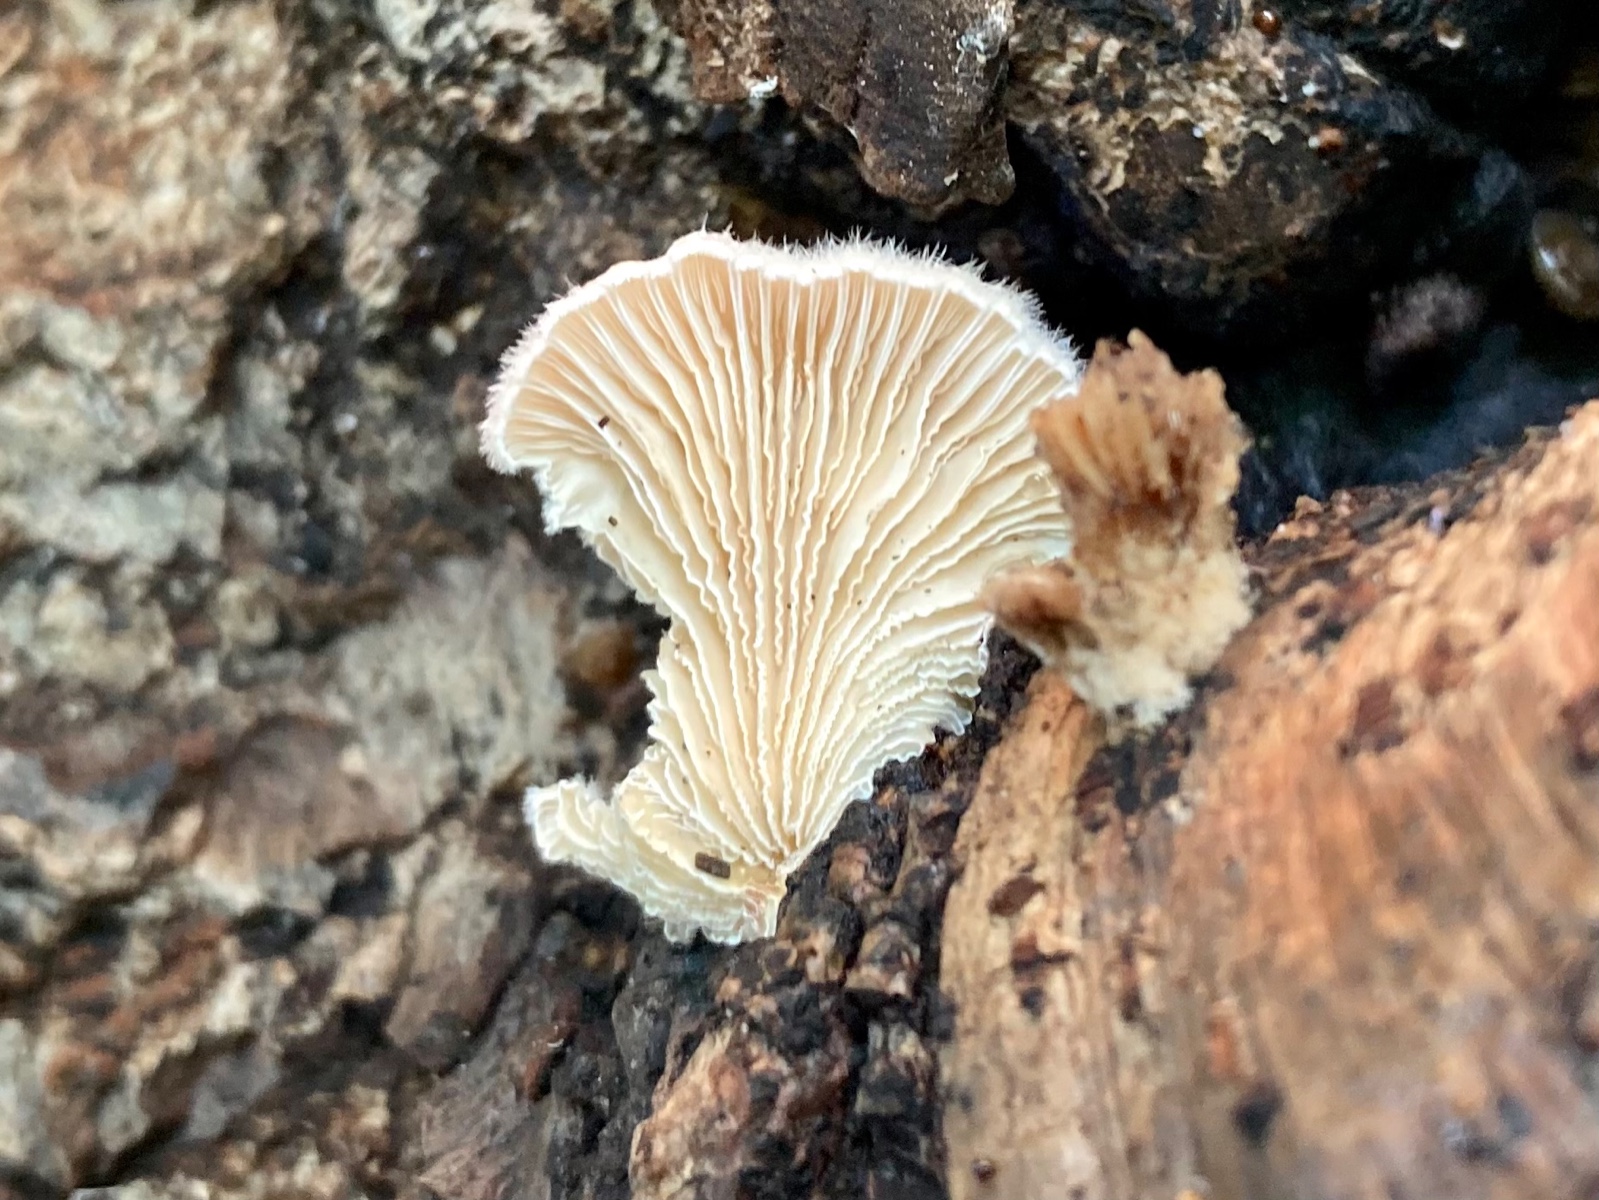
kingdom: Fungi
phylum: Basidiomycota
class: Agaricomycetes
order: Agaricales
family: Schizophyllaceae
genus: Schizophyllum
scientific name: Schizophyllum commune
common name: kløvblad
